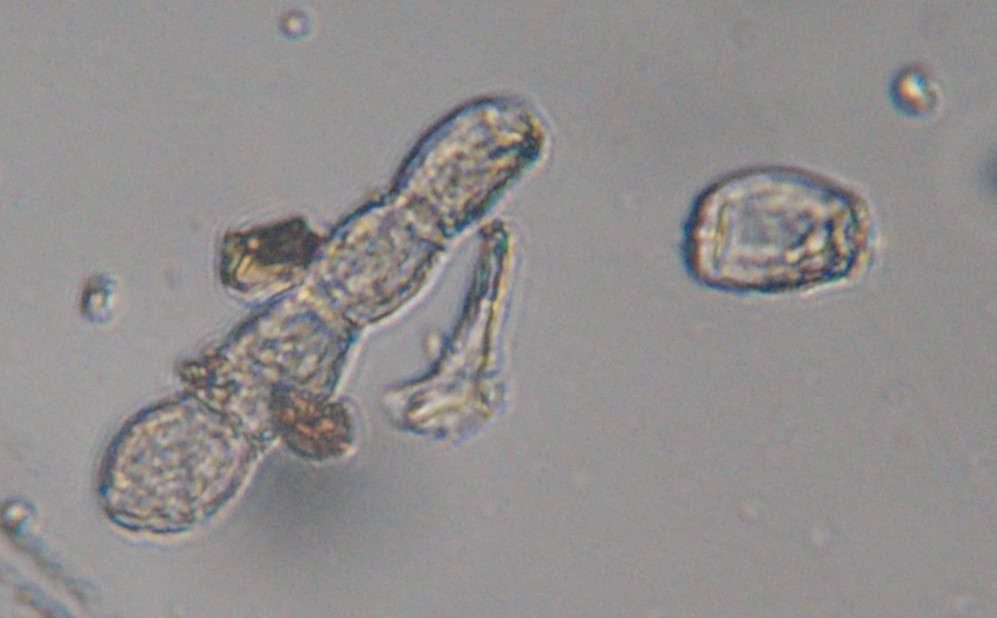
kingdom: Fungi
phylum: Ascomycota
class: Leotiomycetes
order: Helotiales
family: Erysiphaceae
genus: Golovinomyces
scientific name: Golovinomyces
